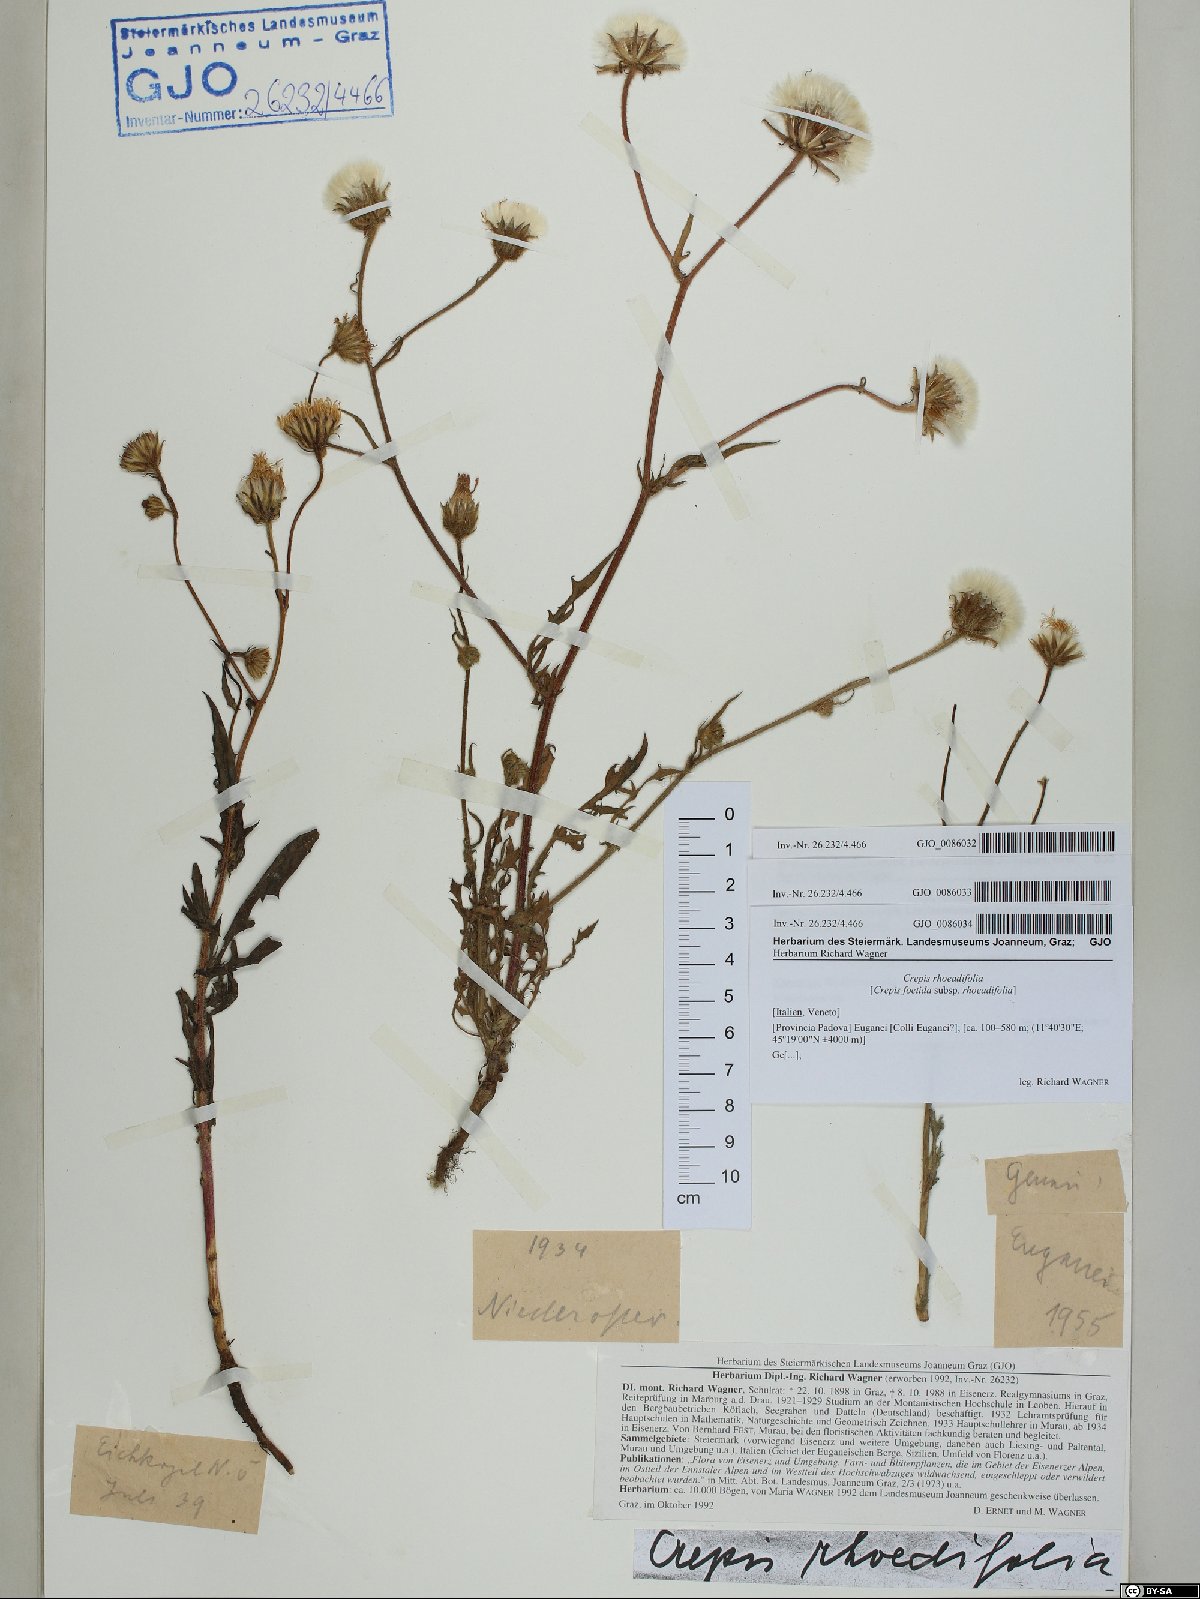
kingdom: Plantae
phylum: Tracheophyta
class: Magnoliopsida
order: Asterales
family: Asteraceae
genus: Crepis
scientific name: Crepis foetida
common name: Stinking hawk's-beard
